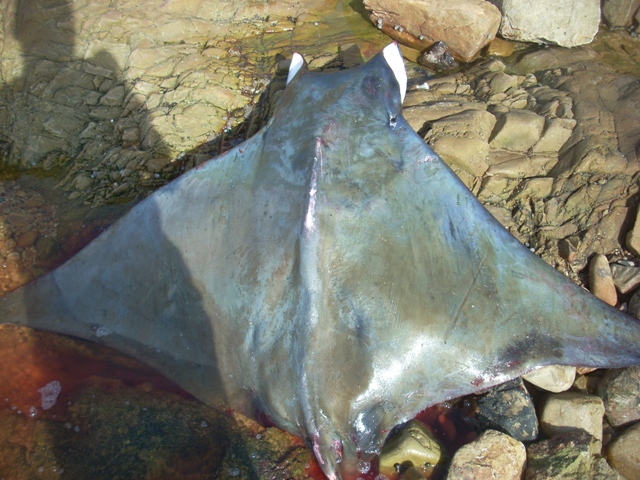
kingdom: Animalia
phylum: Chordata
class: Elasmobranchii
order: Myliobatiformes
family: Myliobatidae
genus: Mobula
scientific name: Mobula japanica
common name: Japanese devil ray
